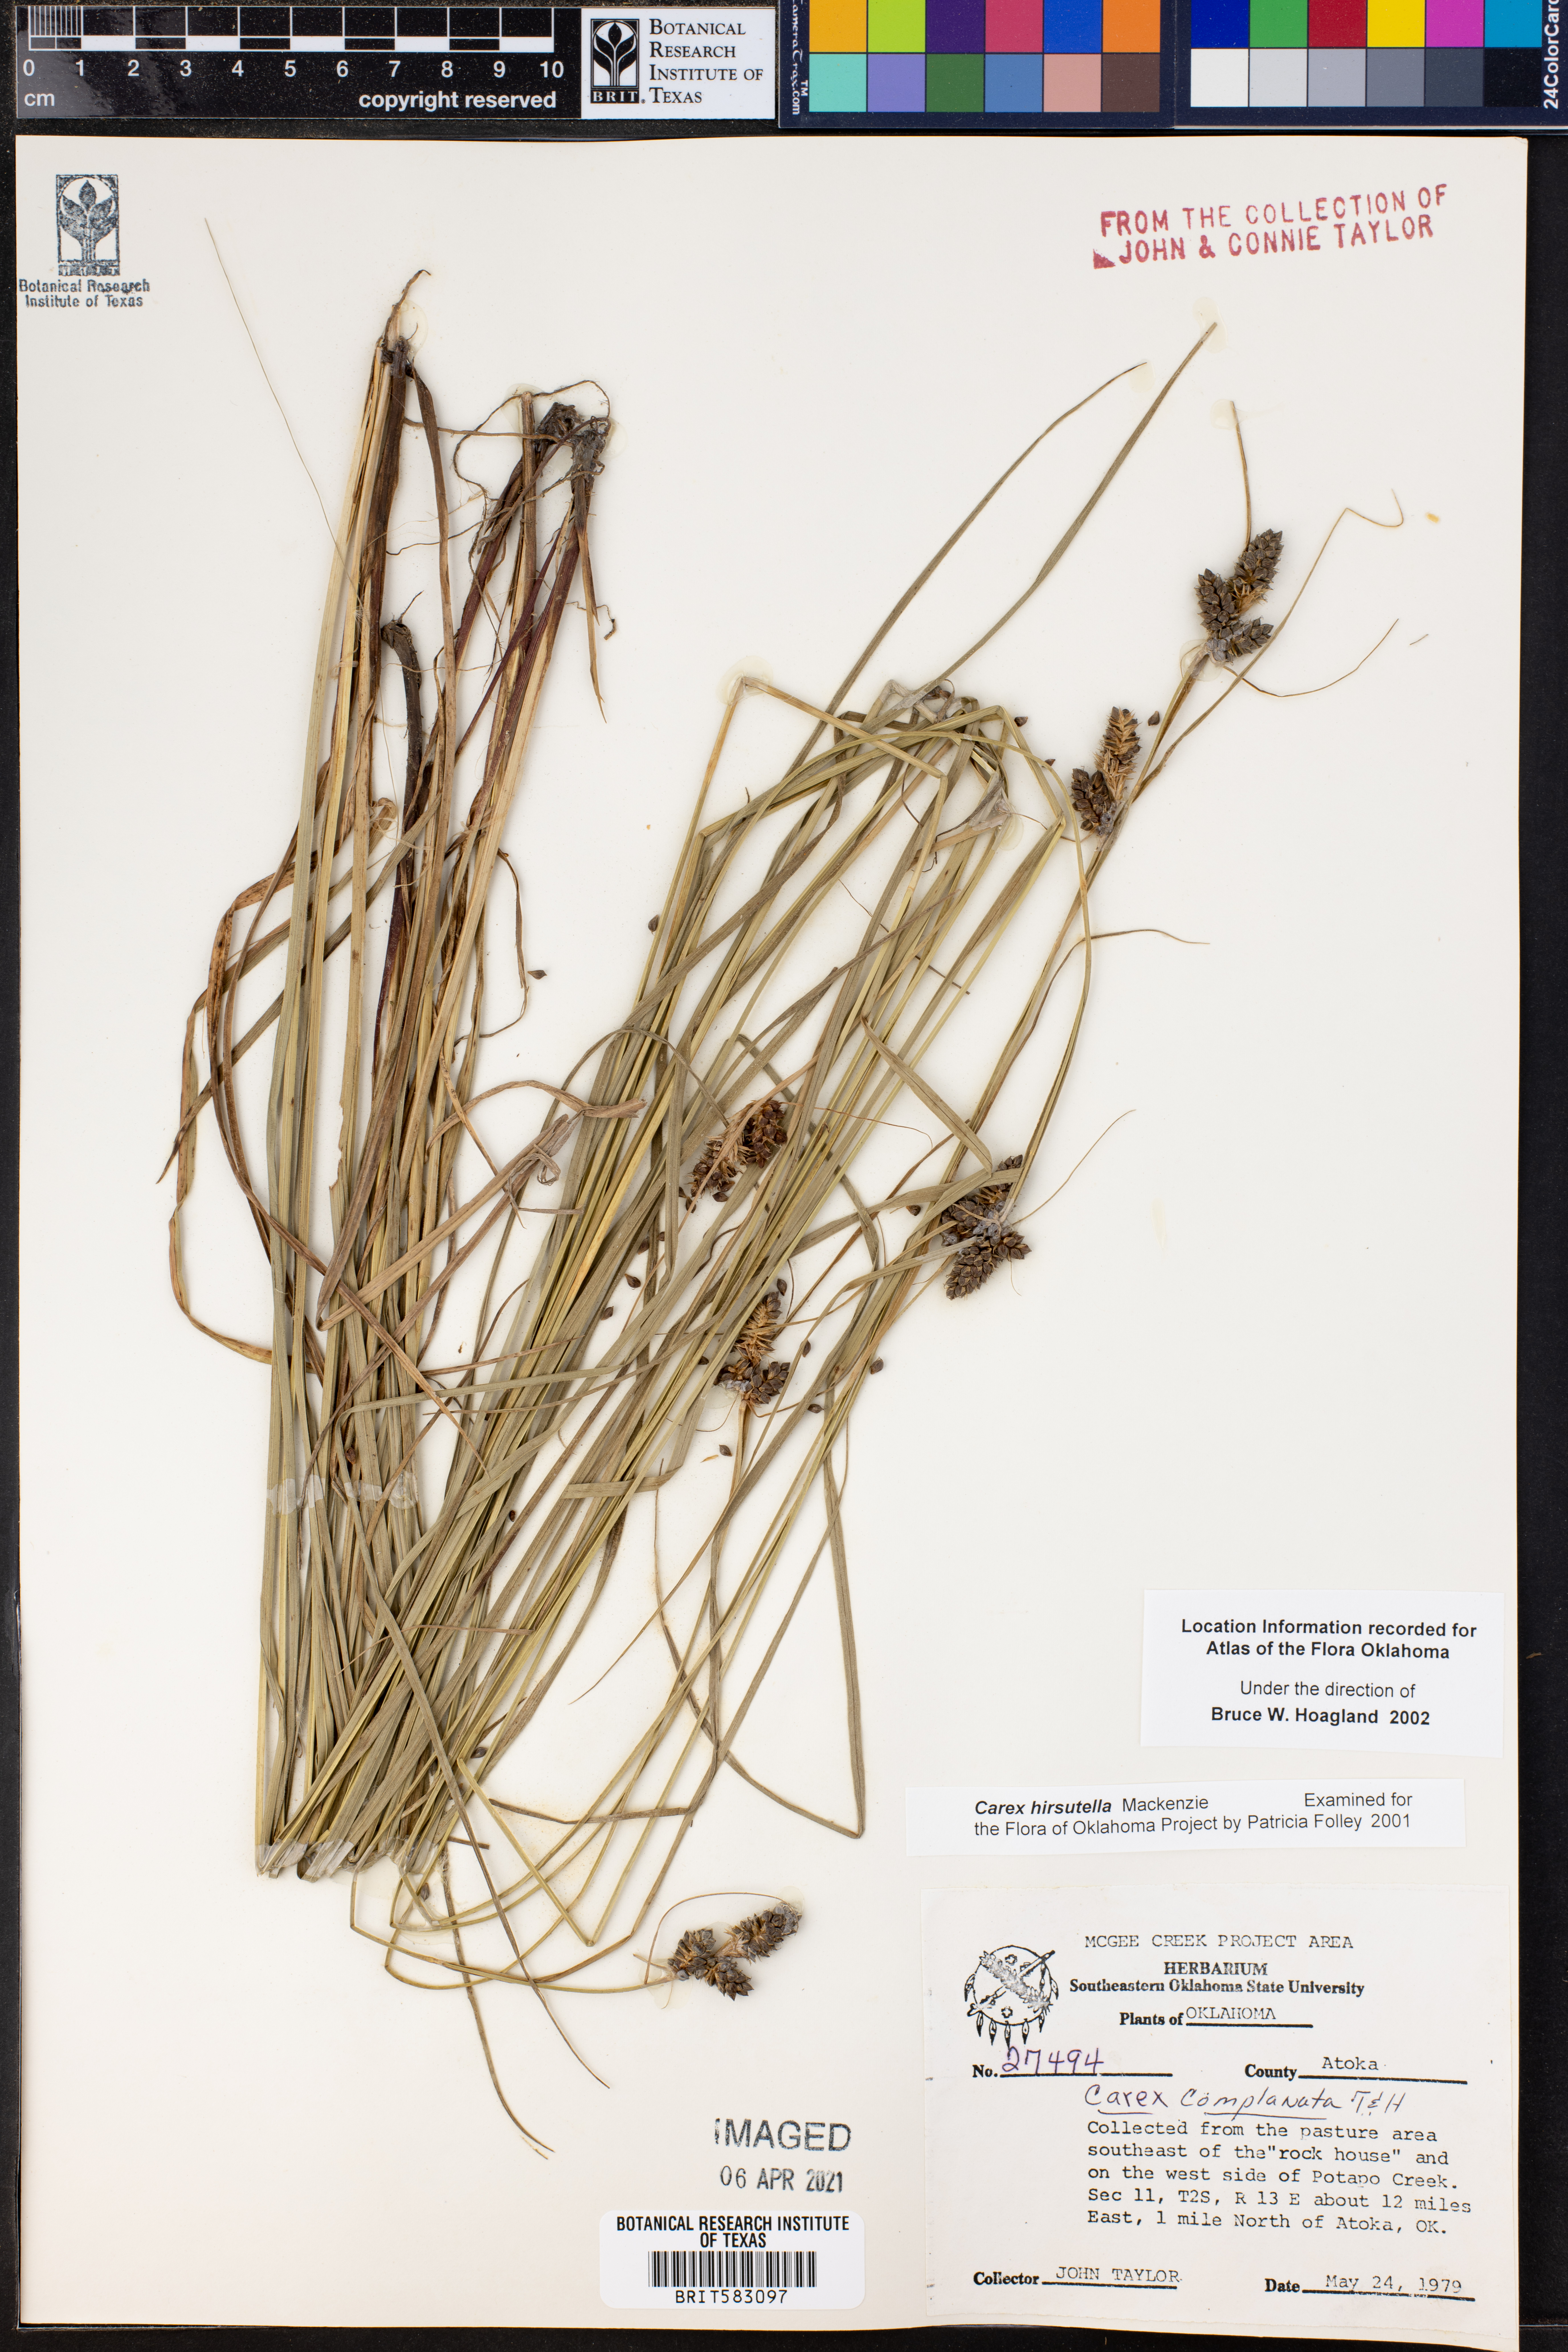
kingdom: Plantae
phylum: Tracheophyta
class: Liliopsida
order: Poales
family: Cyperaceae
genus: Carex
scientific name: Carex hirsutella
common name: Fuzzy wuzzy sedge
